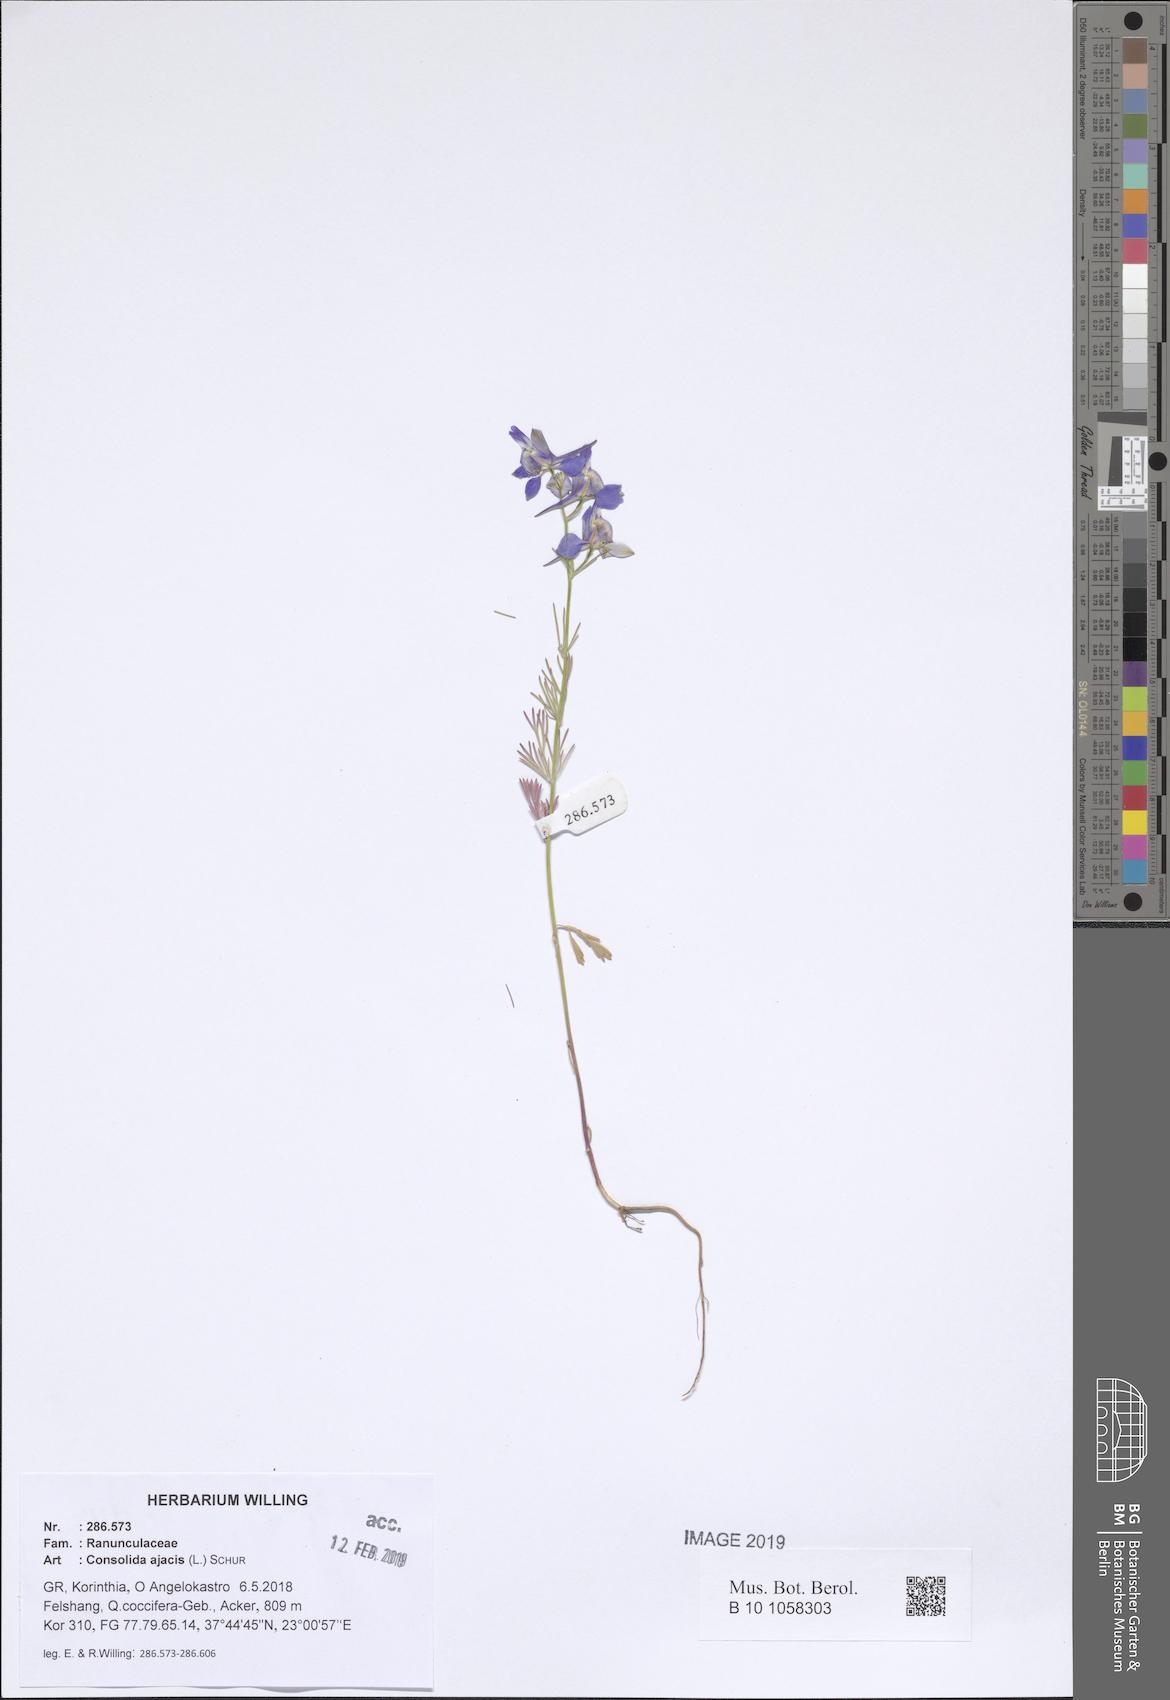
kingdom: Plantae
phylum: Tracheophyta
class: Magnoliopsida
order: Ranunculales
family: Ranunculaceae
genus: Delphinium
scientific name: Delphinium ajacis
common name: Doubtful knight's-spur
